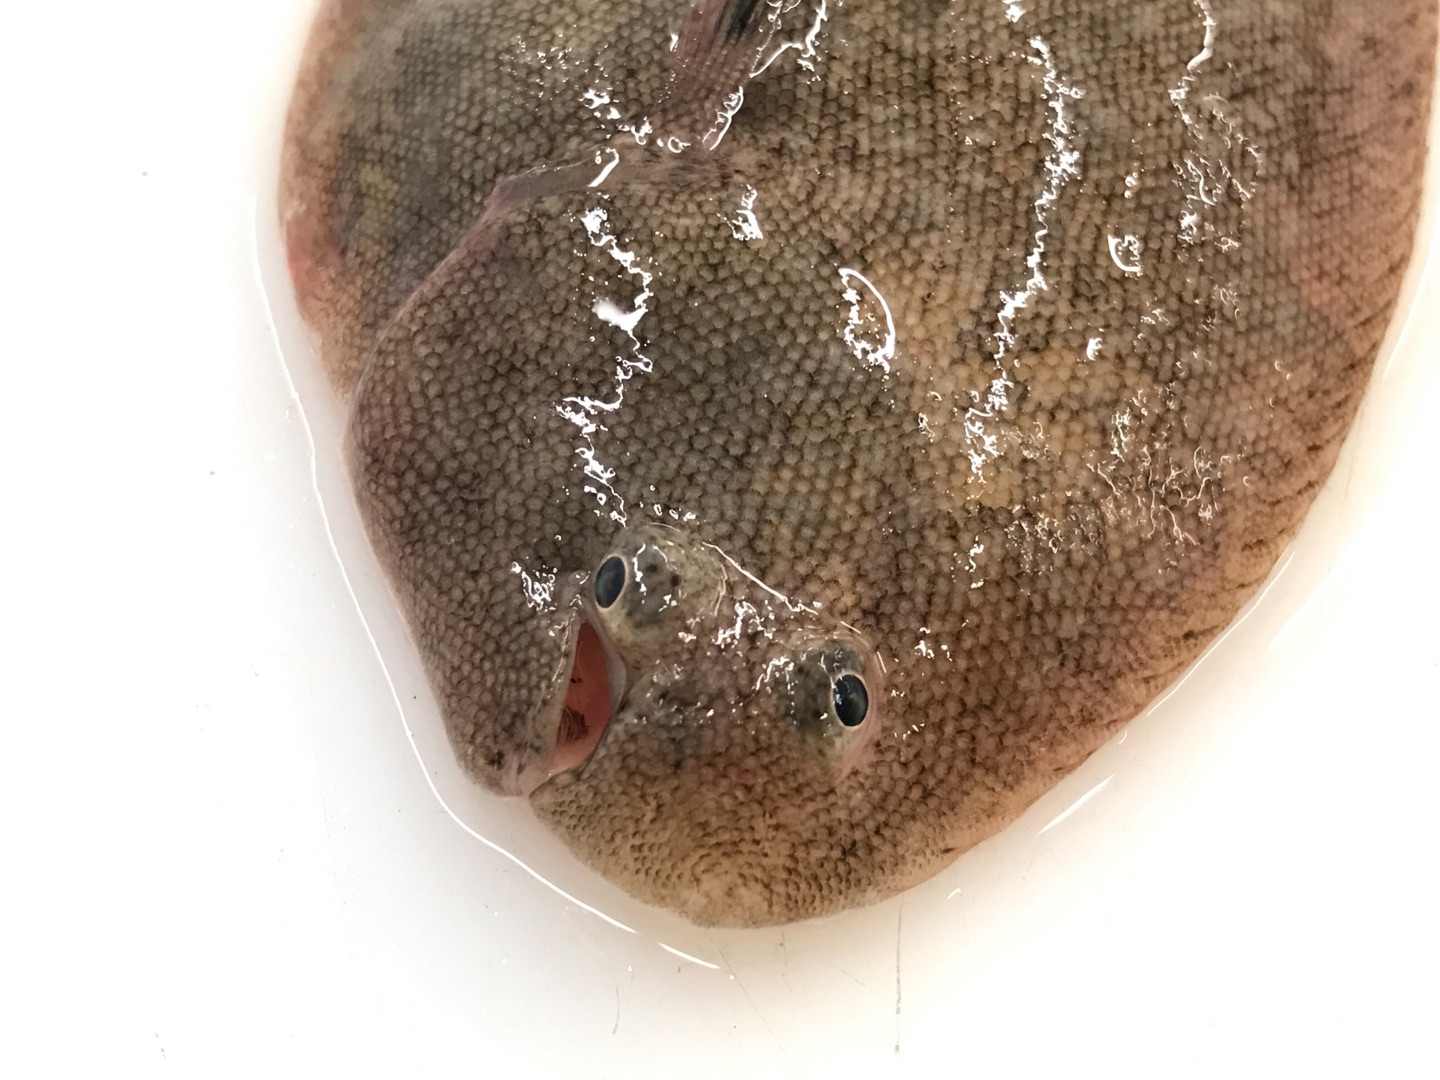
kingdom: Animalia
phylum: Chordata
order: Pleuronectiformes
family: Soleidae
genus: Solea
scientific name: Solea solea
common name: Tunge
